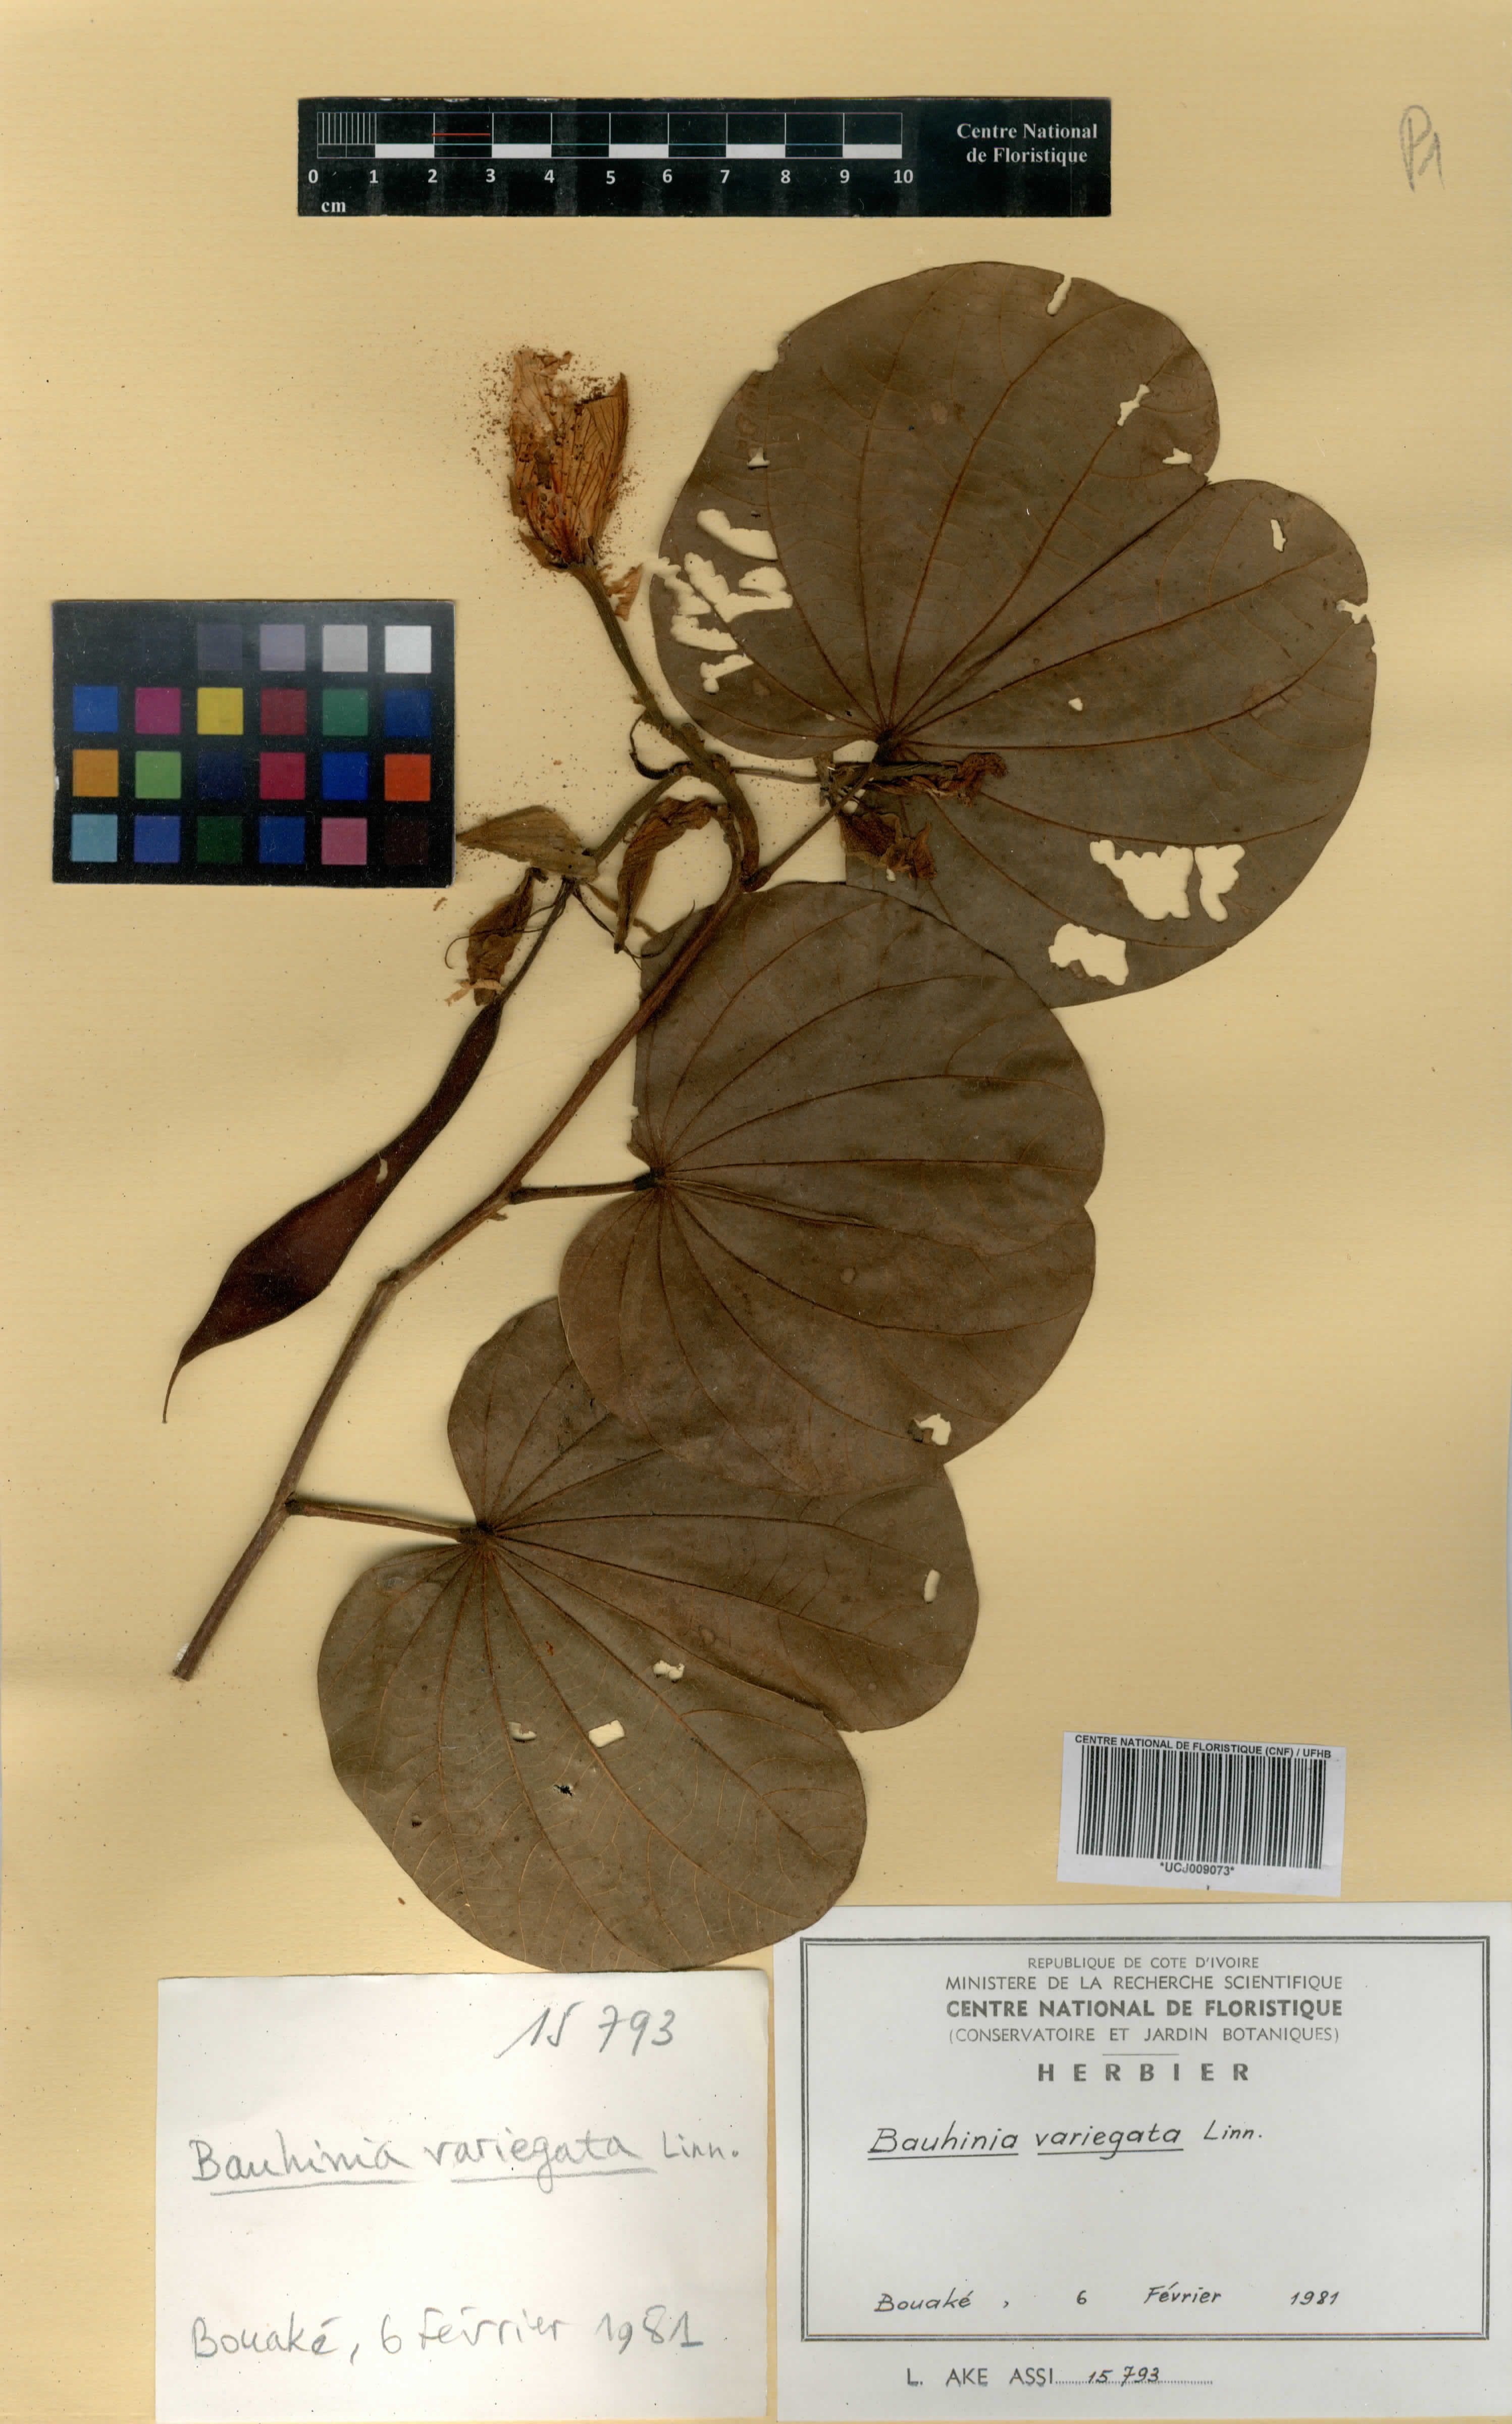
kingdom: Plantae
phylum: Tracheophyta
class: Magnoliopsida
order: Fabales
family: Fabaceae
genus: Bauhinia
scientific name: Bauhinia variegata
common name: Mountain ebony
